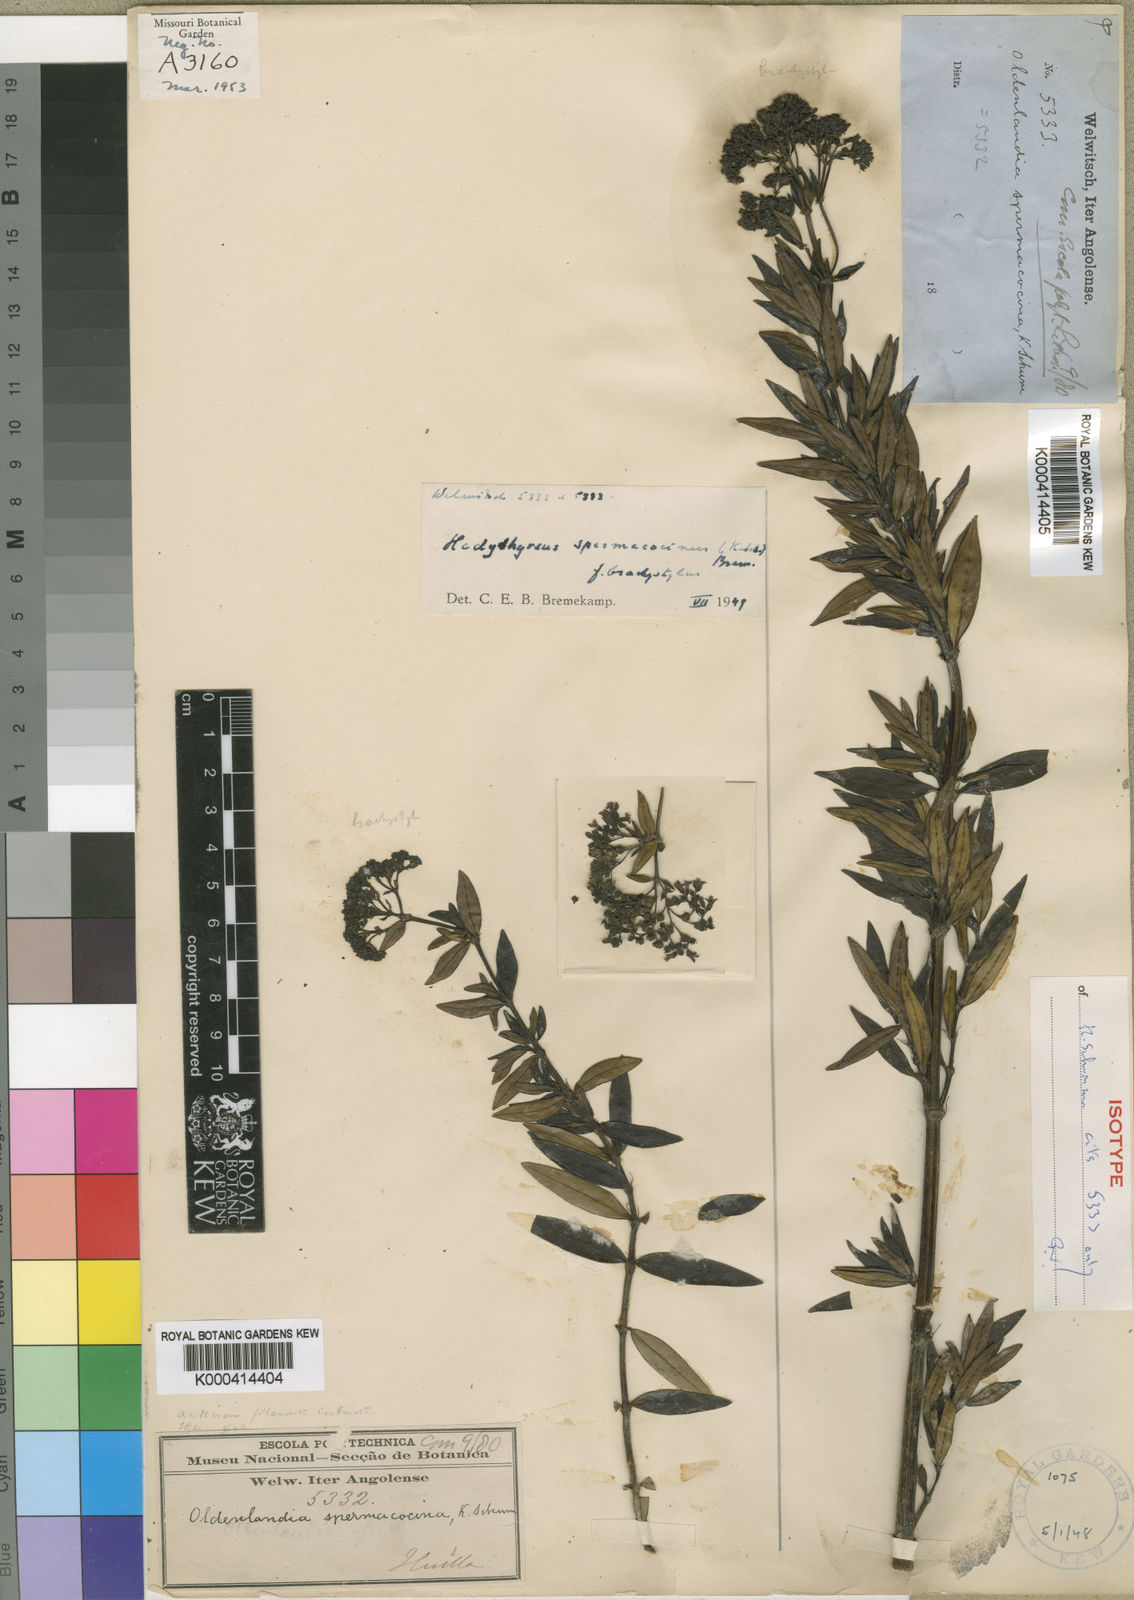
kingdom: Plantae
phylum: Tracheophyta
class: Magnoliopsida
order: Gentianales
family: Rubiaceae
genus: Hedythyrsus
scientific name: Hedythyrsus spermacocinus
